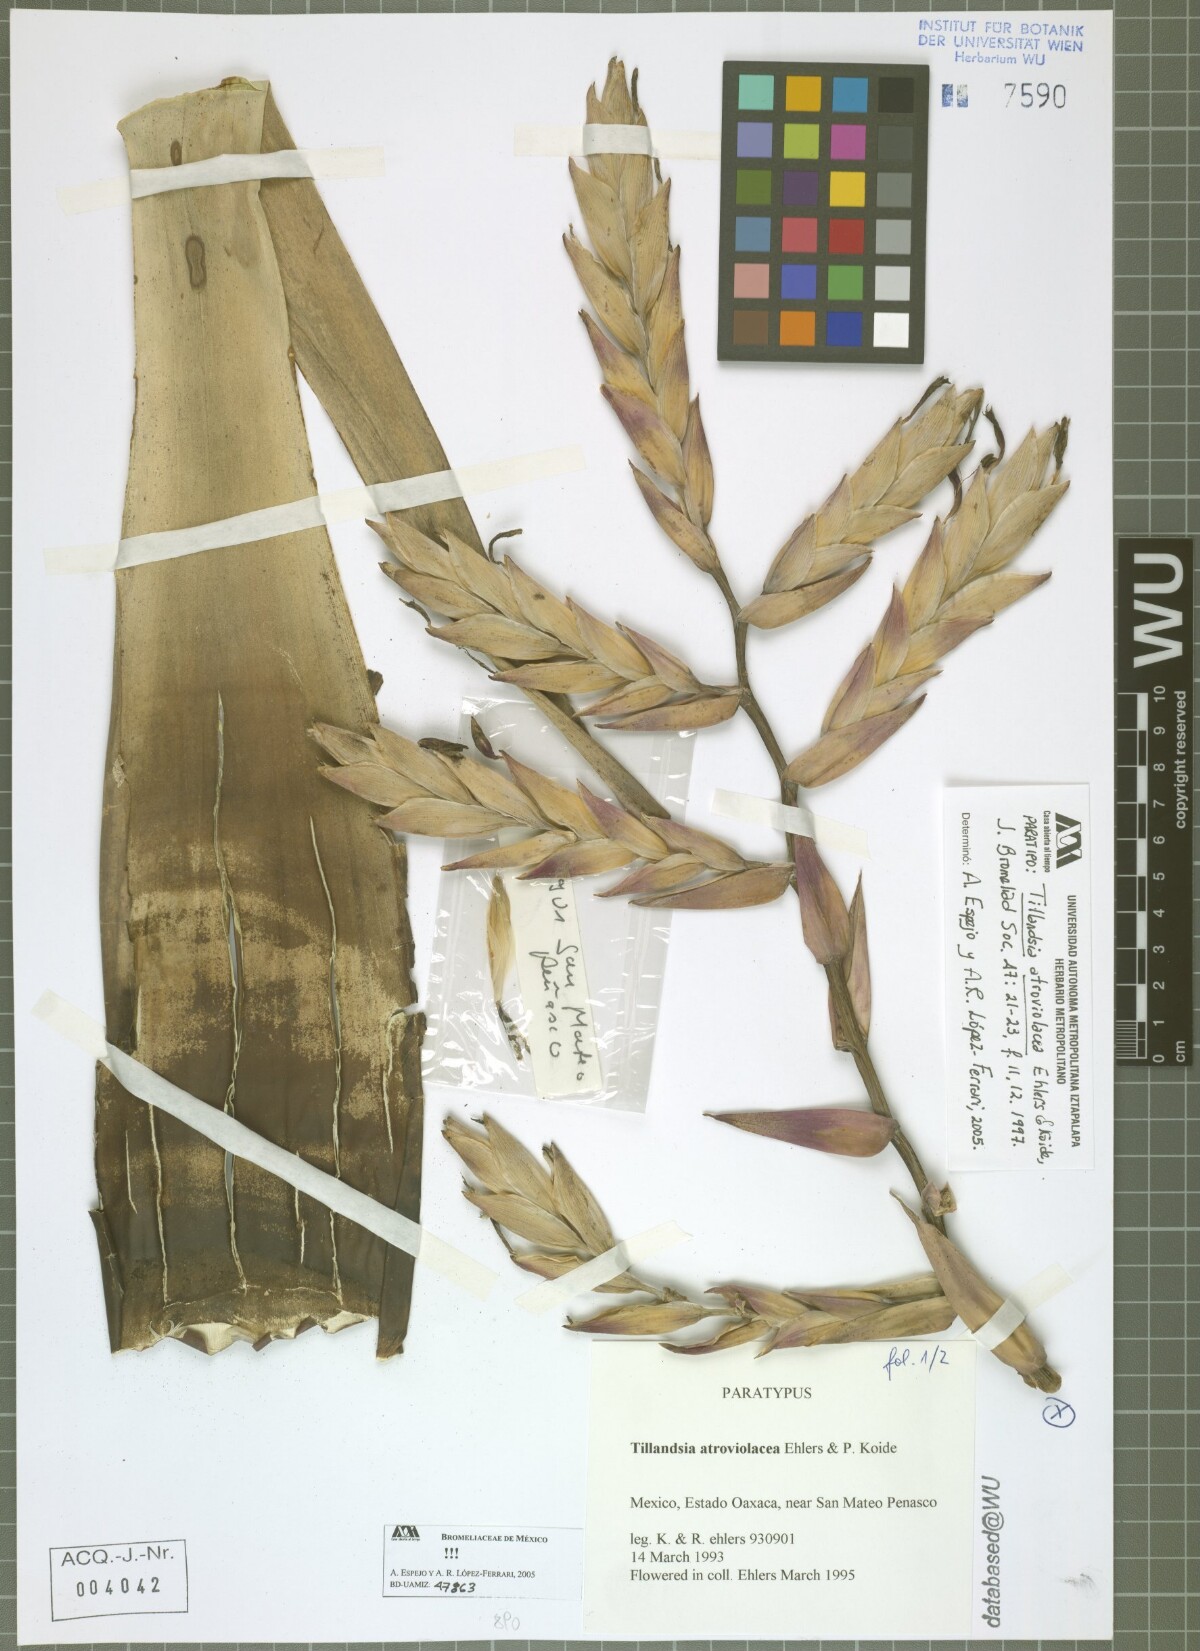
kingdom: Plantae
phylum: Tracheophyta
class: Liliopsida
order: Poales
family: Bromeliaceae
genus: Tillandsia
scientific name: Tillandsia atroviolacea
